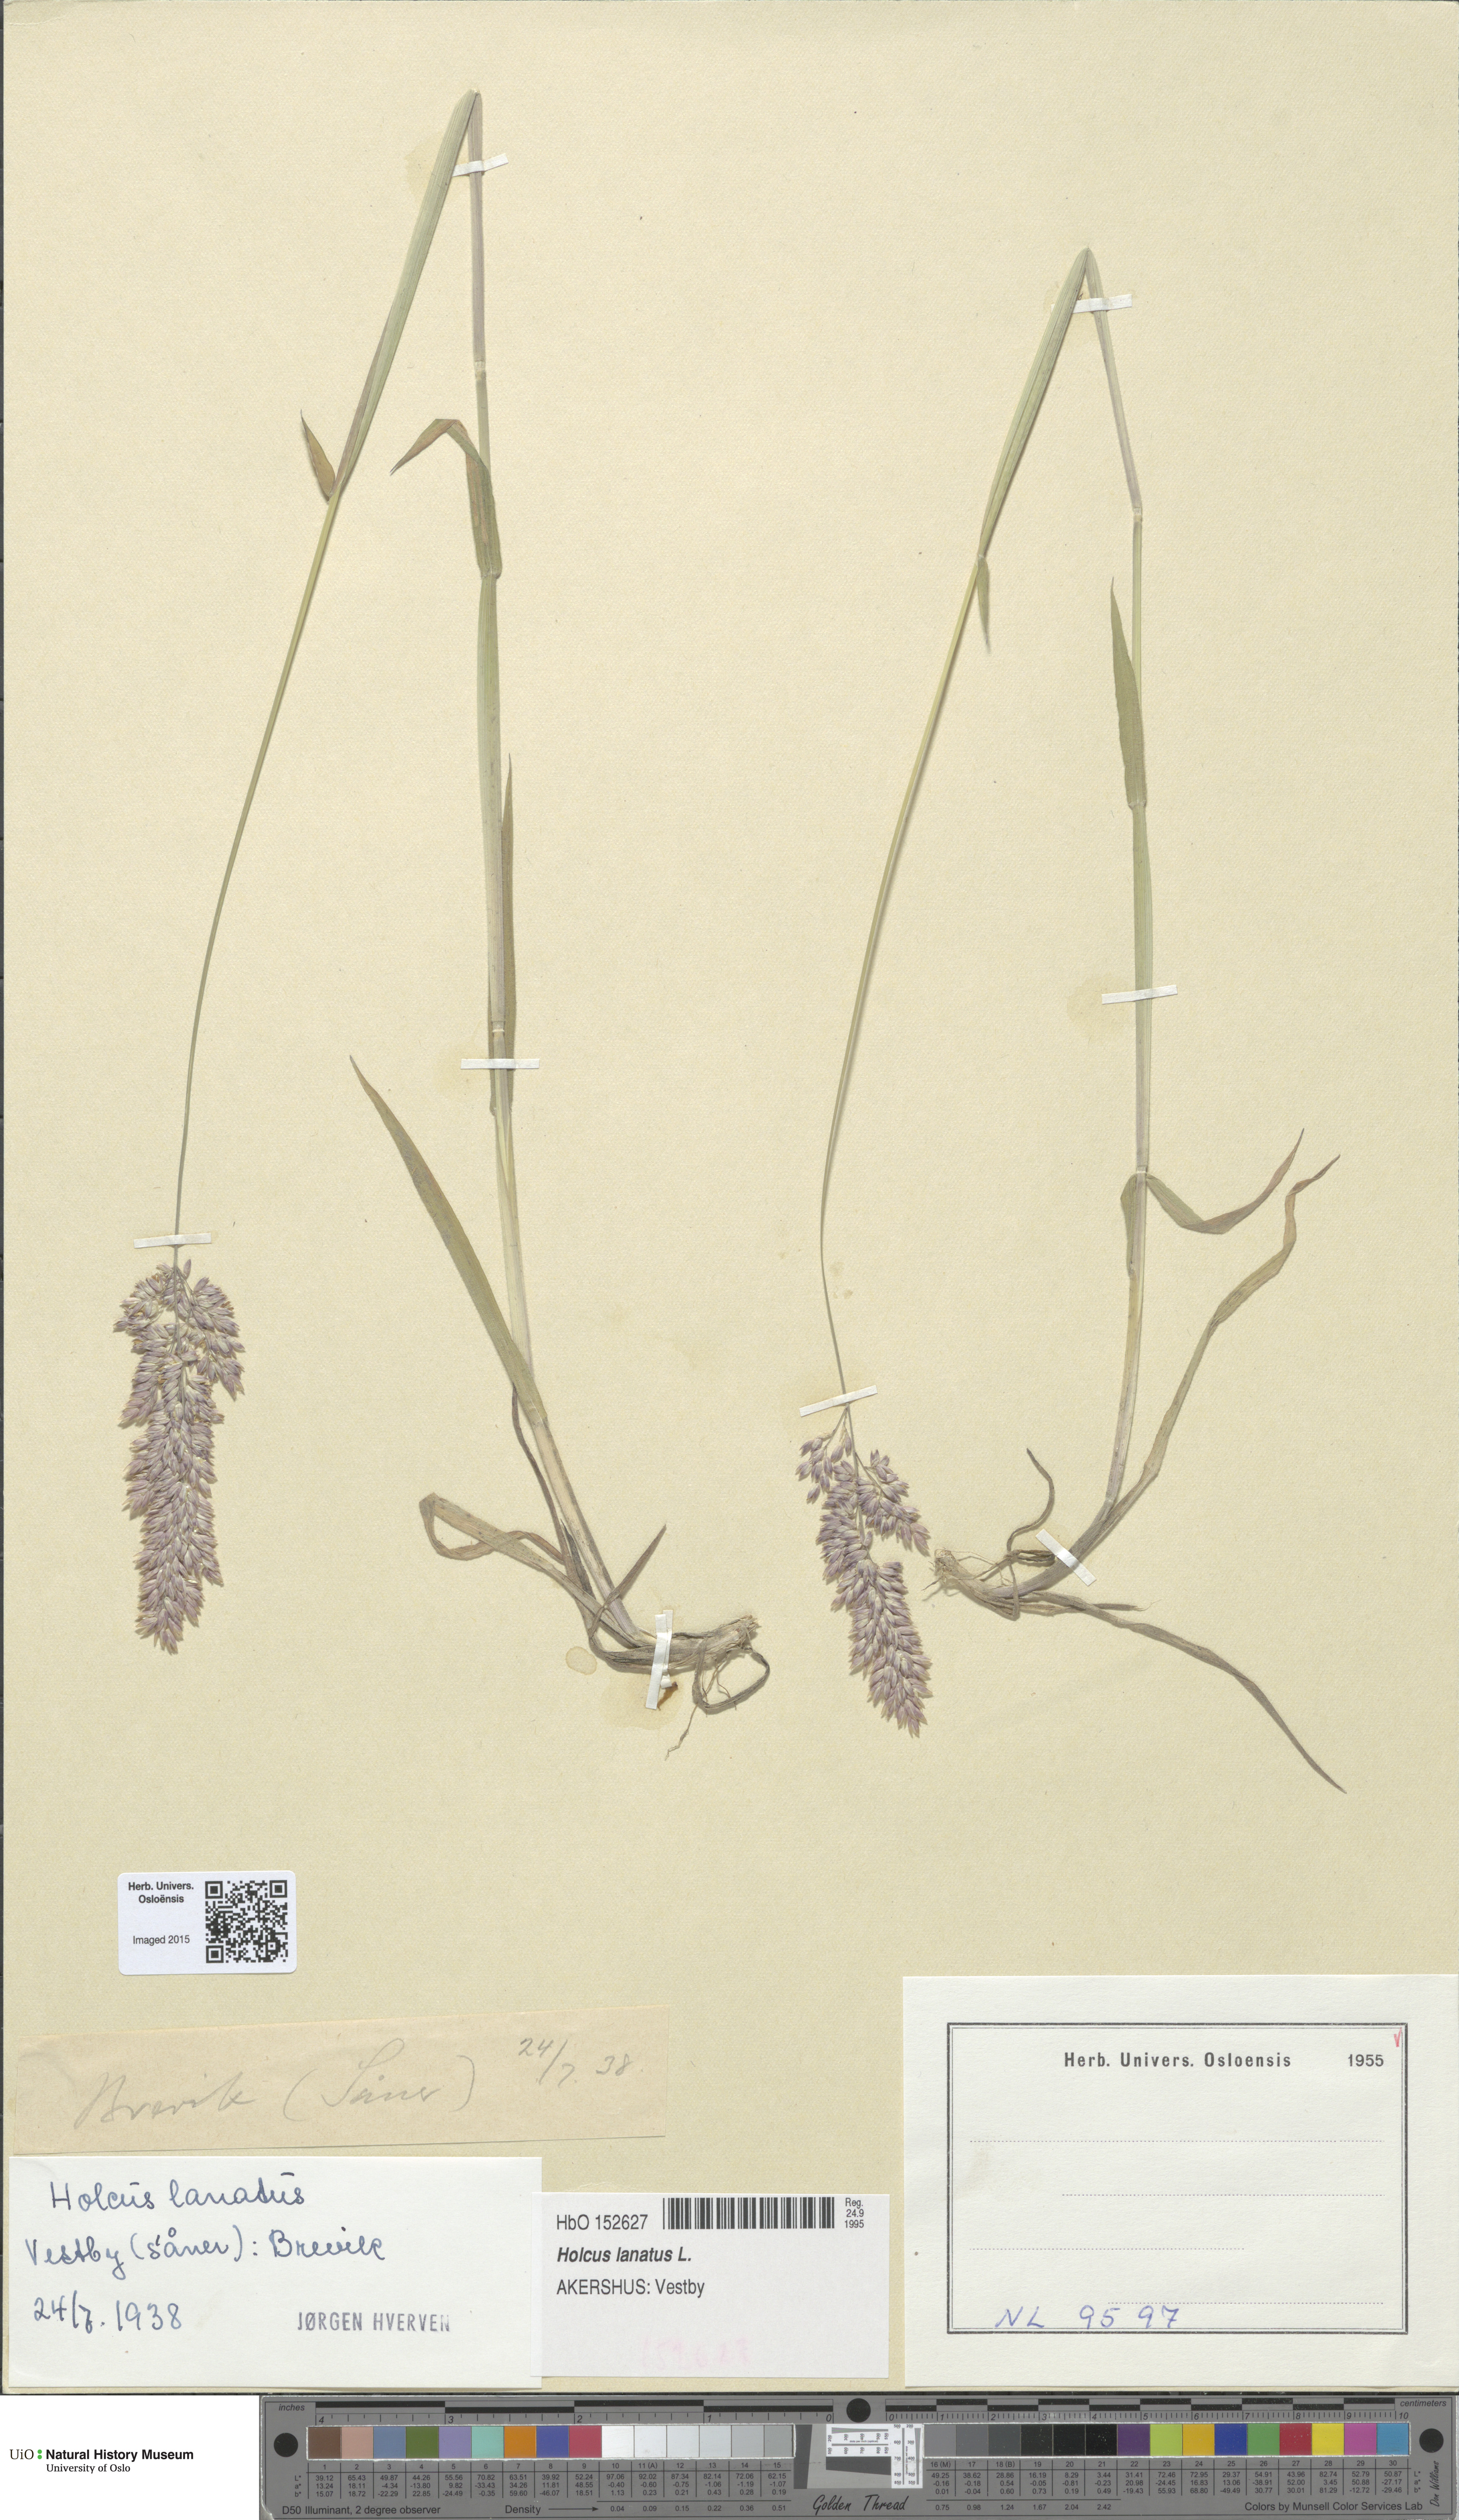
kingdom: Plantae
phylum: Tracheophyta
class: Liliopsida
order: Poales
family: Poaceae
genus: Holcus
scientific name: Holcus lanatus
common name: Yorkshire-fog
